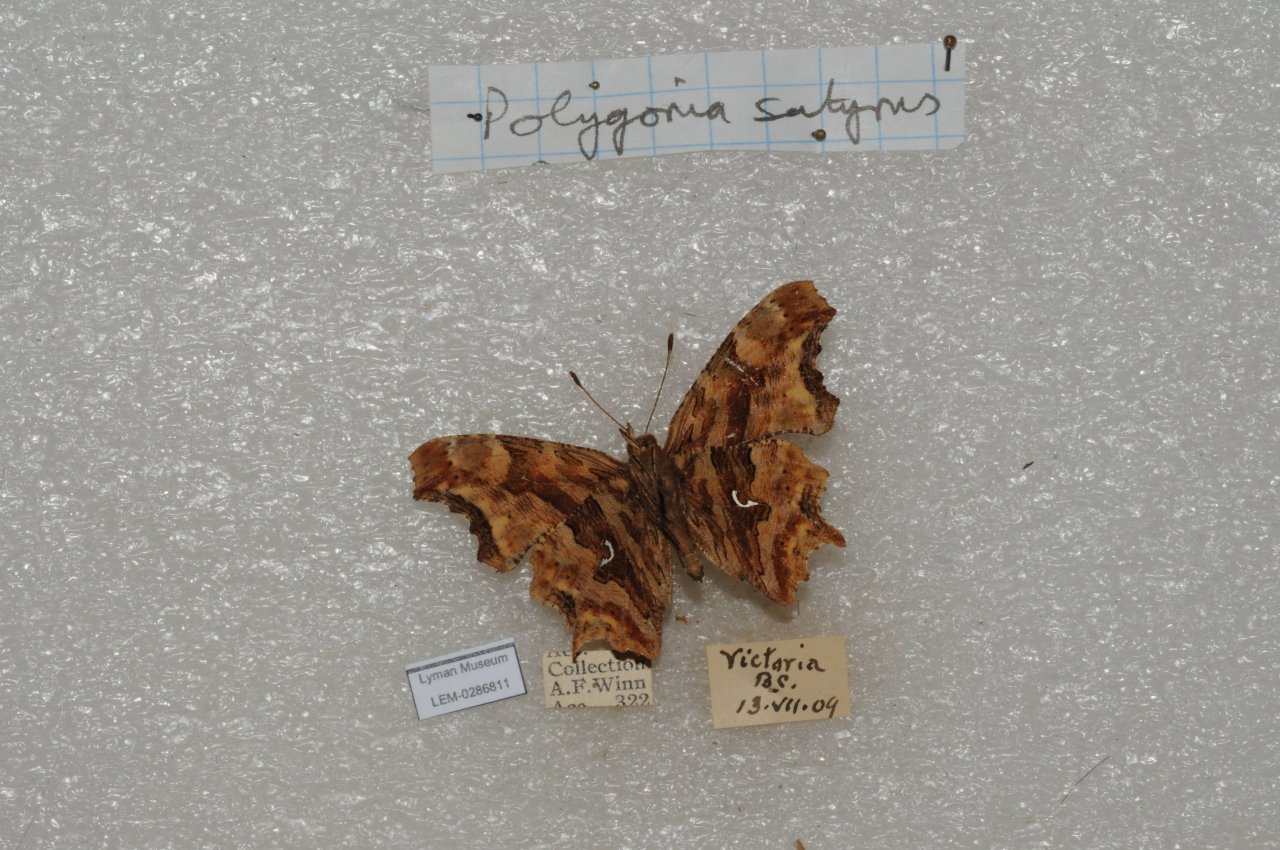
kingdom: Animalia
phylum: Arthropoda
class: Insecta
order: Lepidoptera
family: Nymphalidae
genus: Polygonia
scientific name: Polygonia satyrus
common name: Satyr Comma
